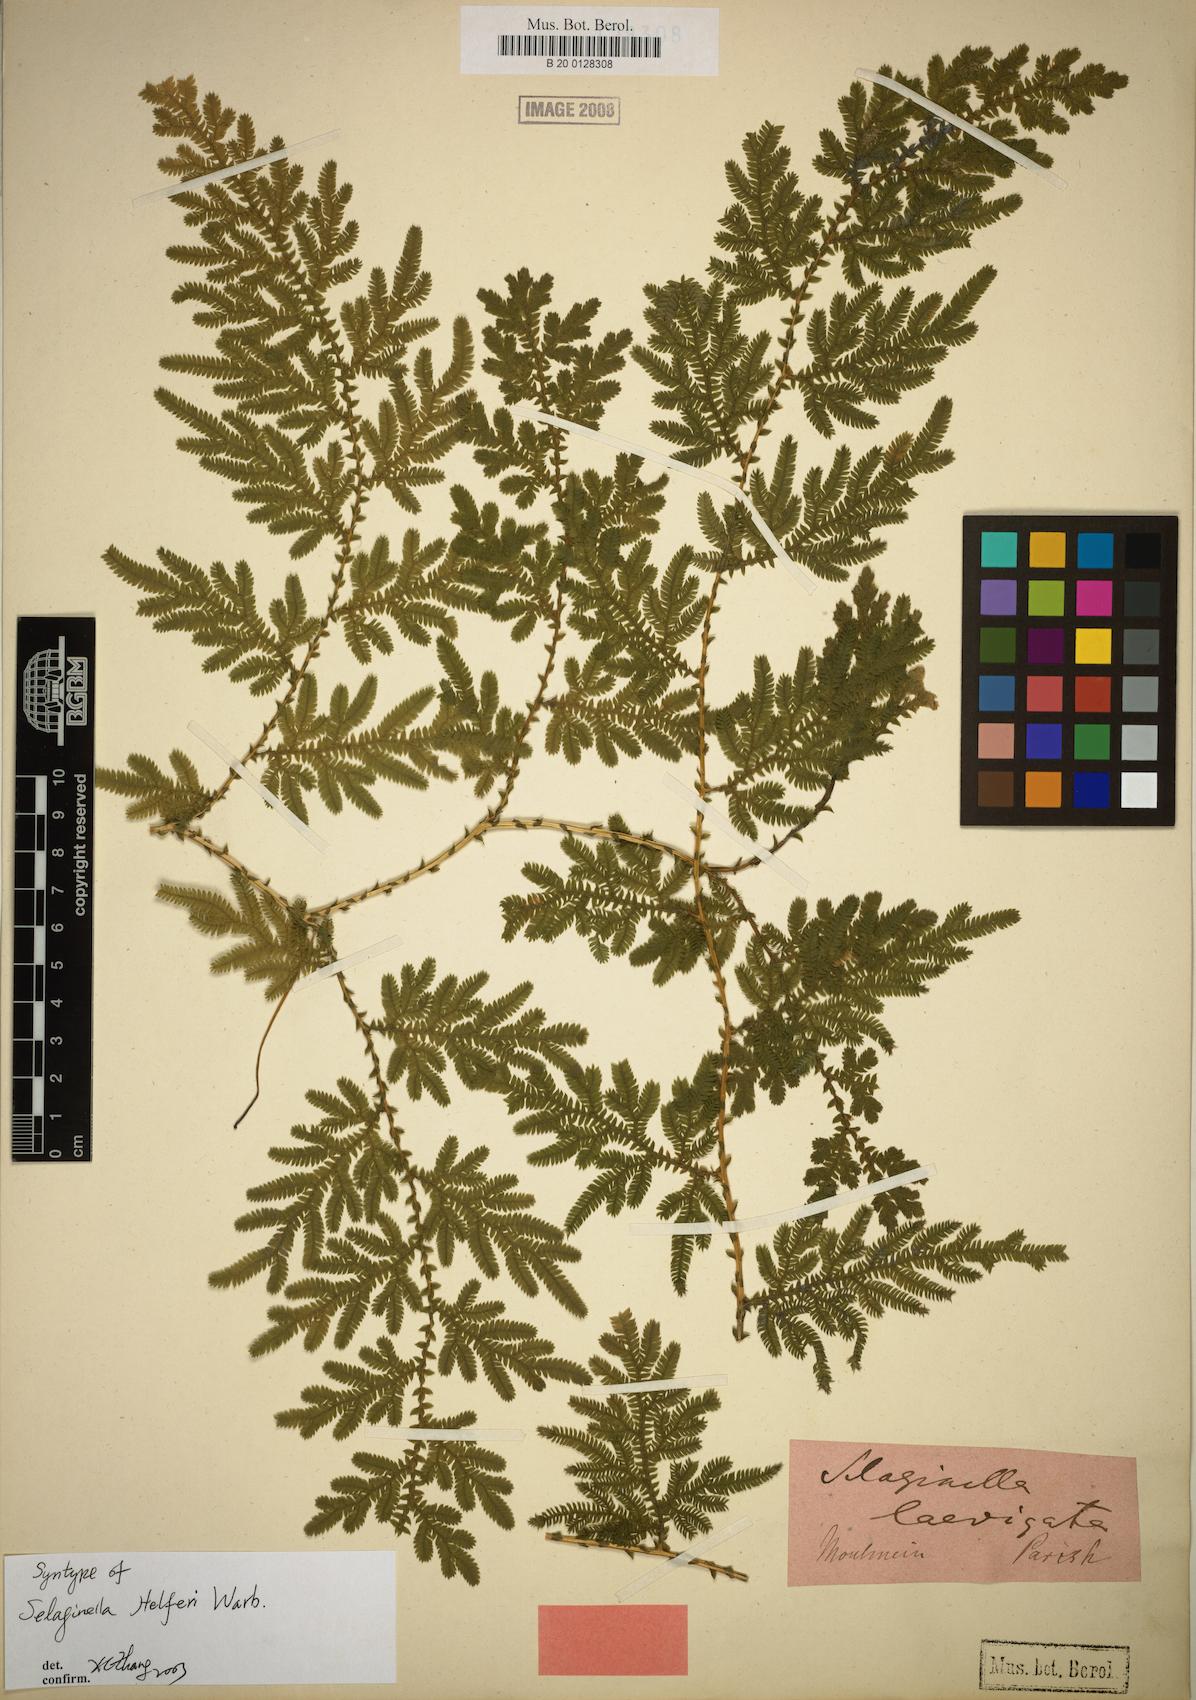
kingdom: Plantae
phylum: Tracheophyta
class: Lycopodiopsida
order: Selaginellales
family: Selaginellaceae
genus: Selaginella
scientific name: Selaginella helferi
